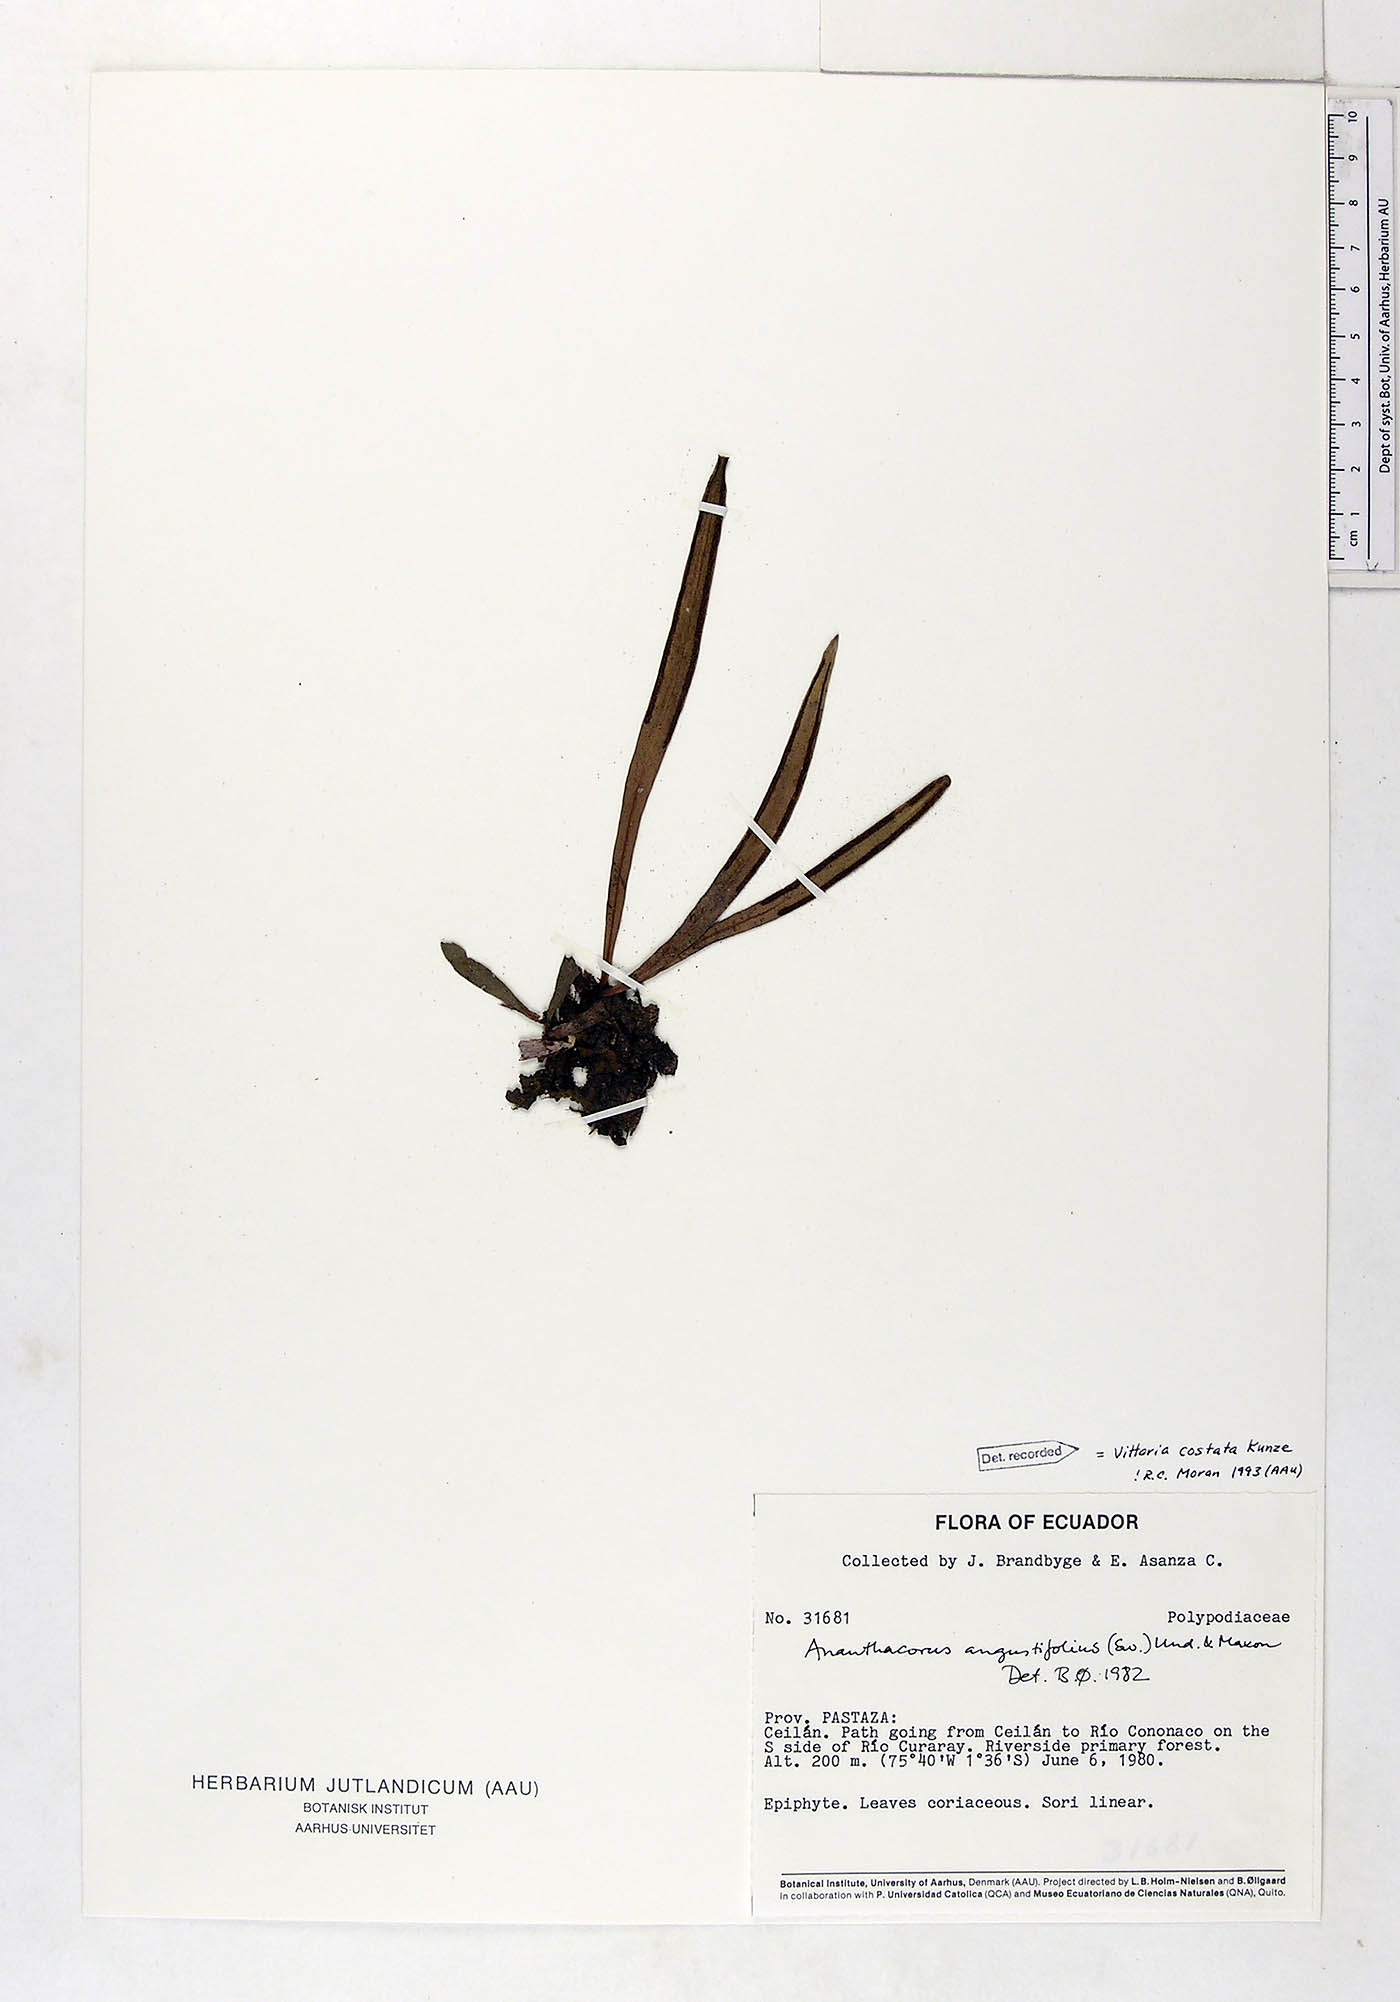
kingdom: Plantae
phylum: Tracheophyta
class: Polypodiopsida
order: Polypodiales
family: Pteridaceae
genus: Ananthacorus
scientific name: Ananthacorus angustifolius
